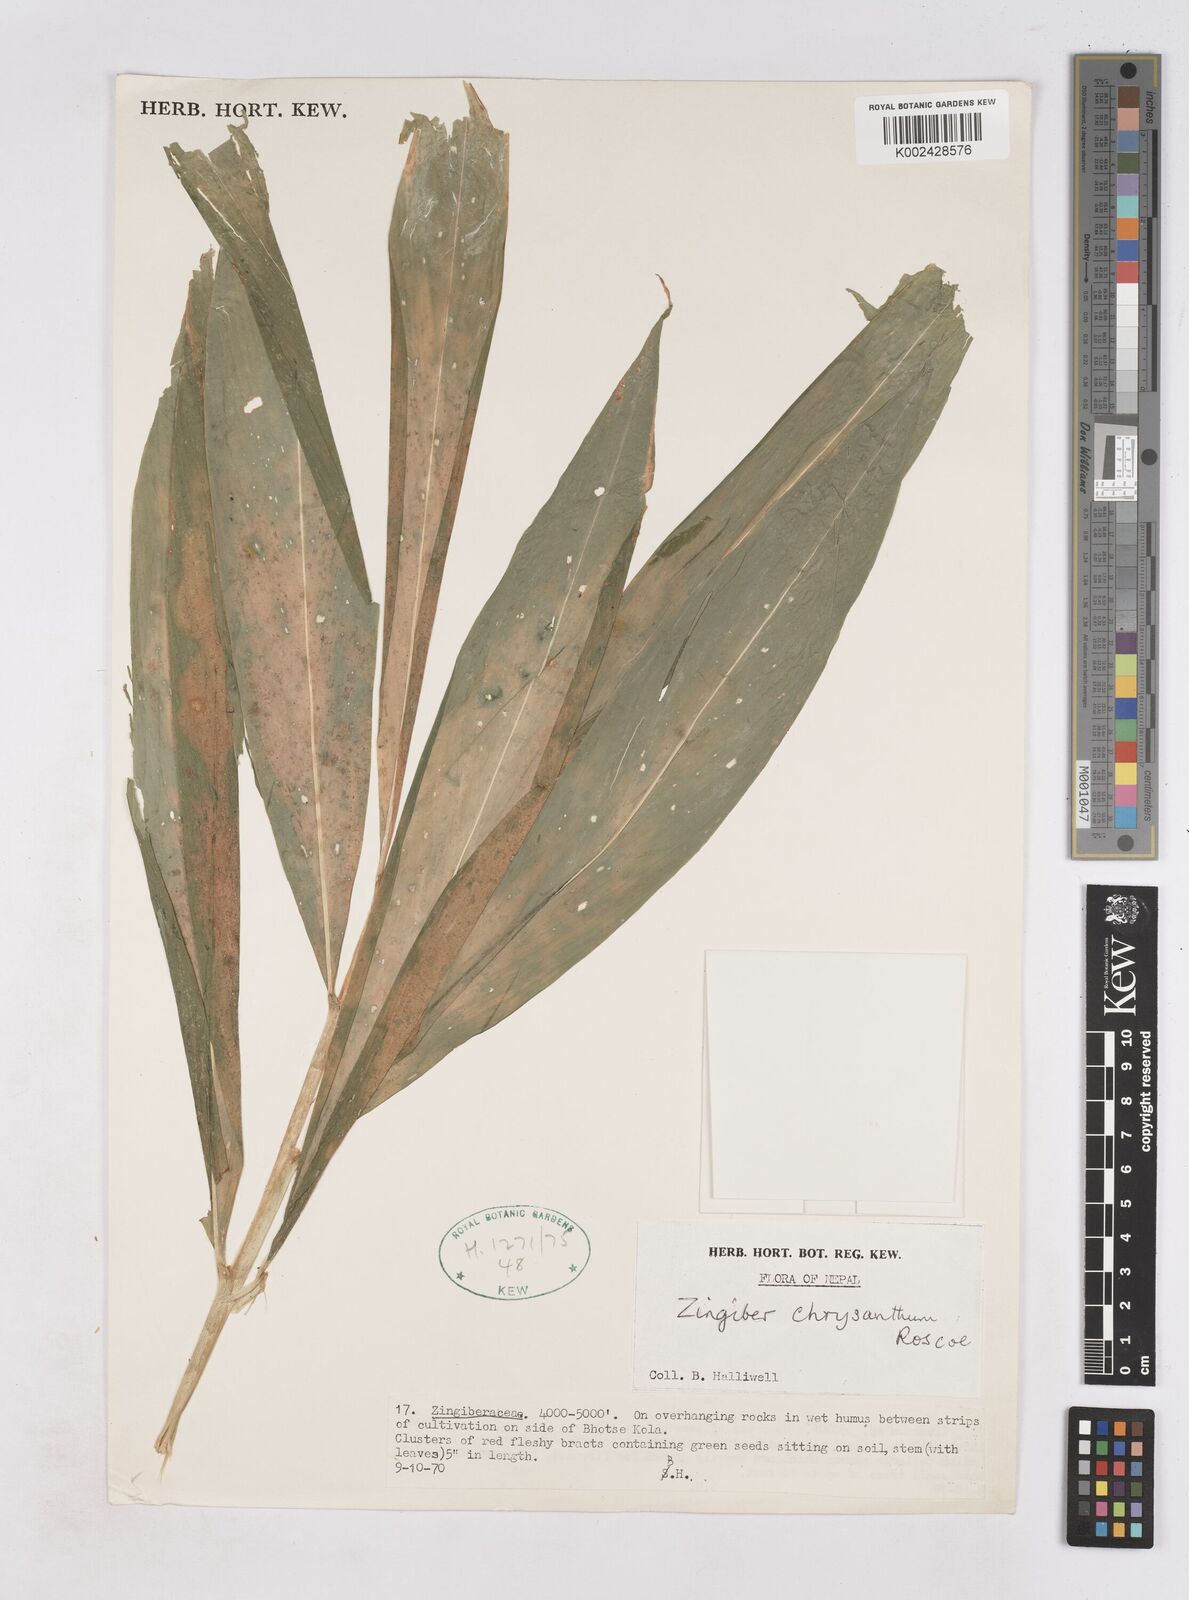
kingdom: Plantae
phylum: Tracheophyta
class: Liliopsida
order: Zingiberales
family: Zingiberaceae
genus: Zingiber
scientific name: Zingiber chrysanthum
